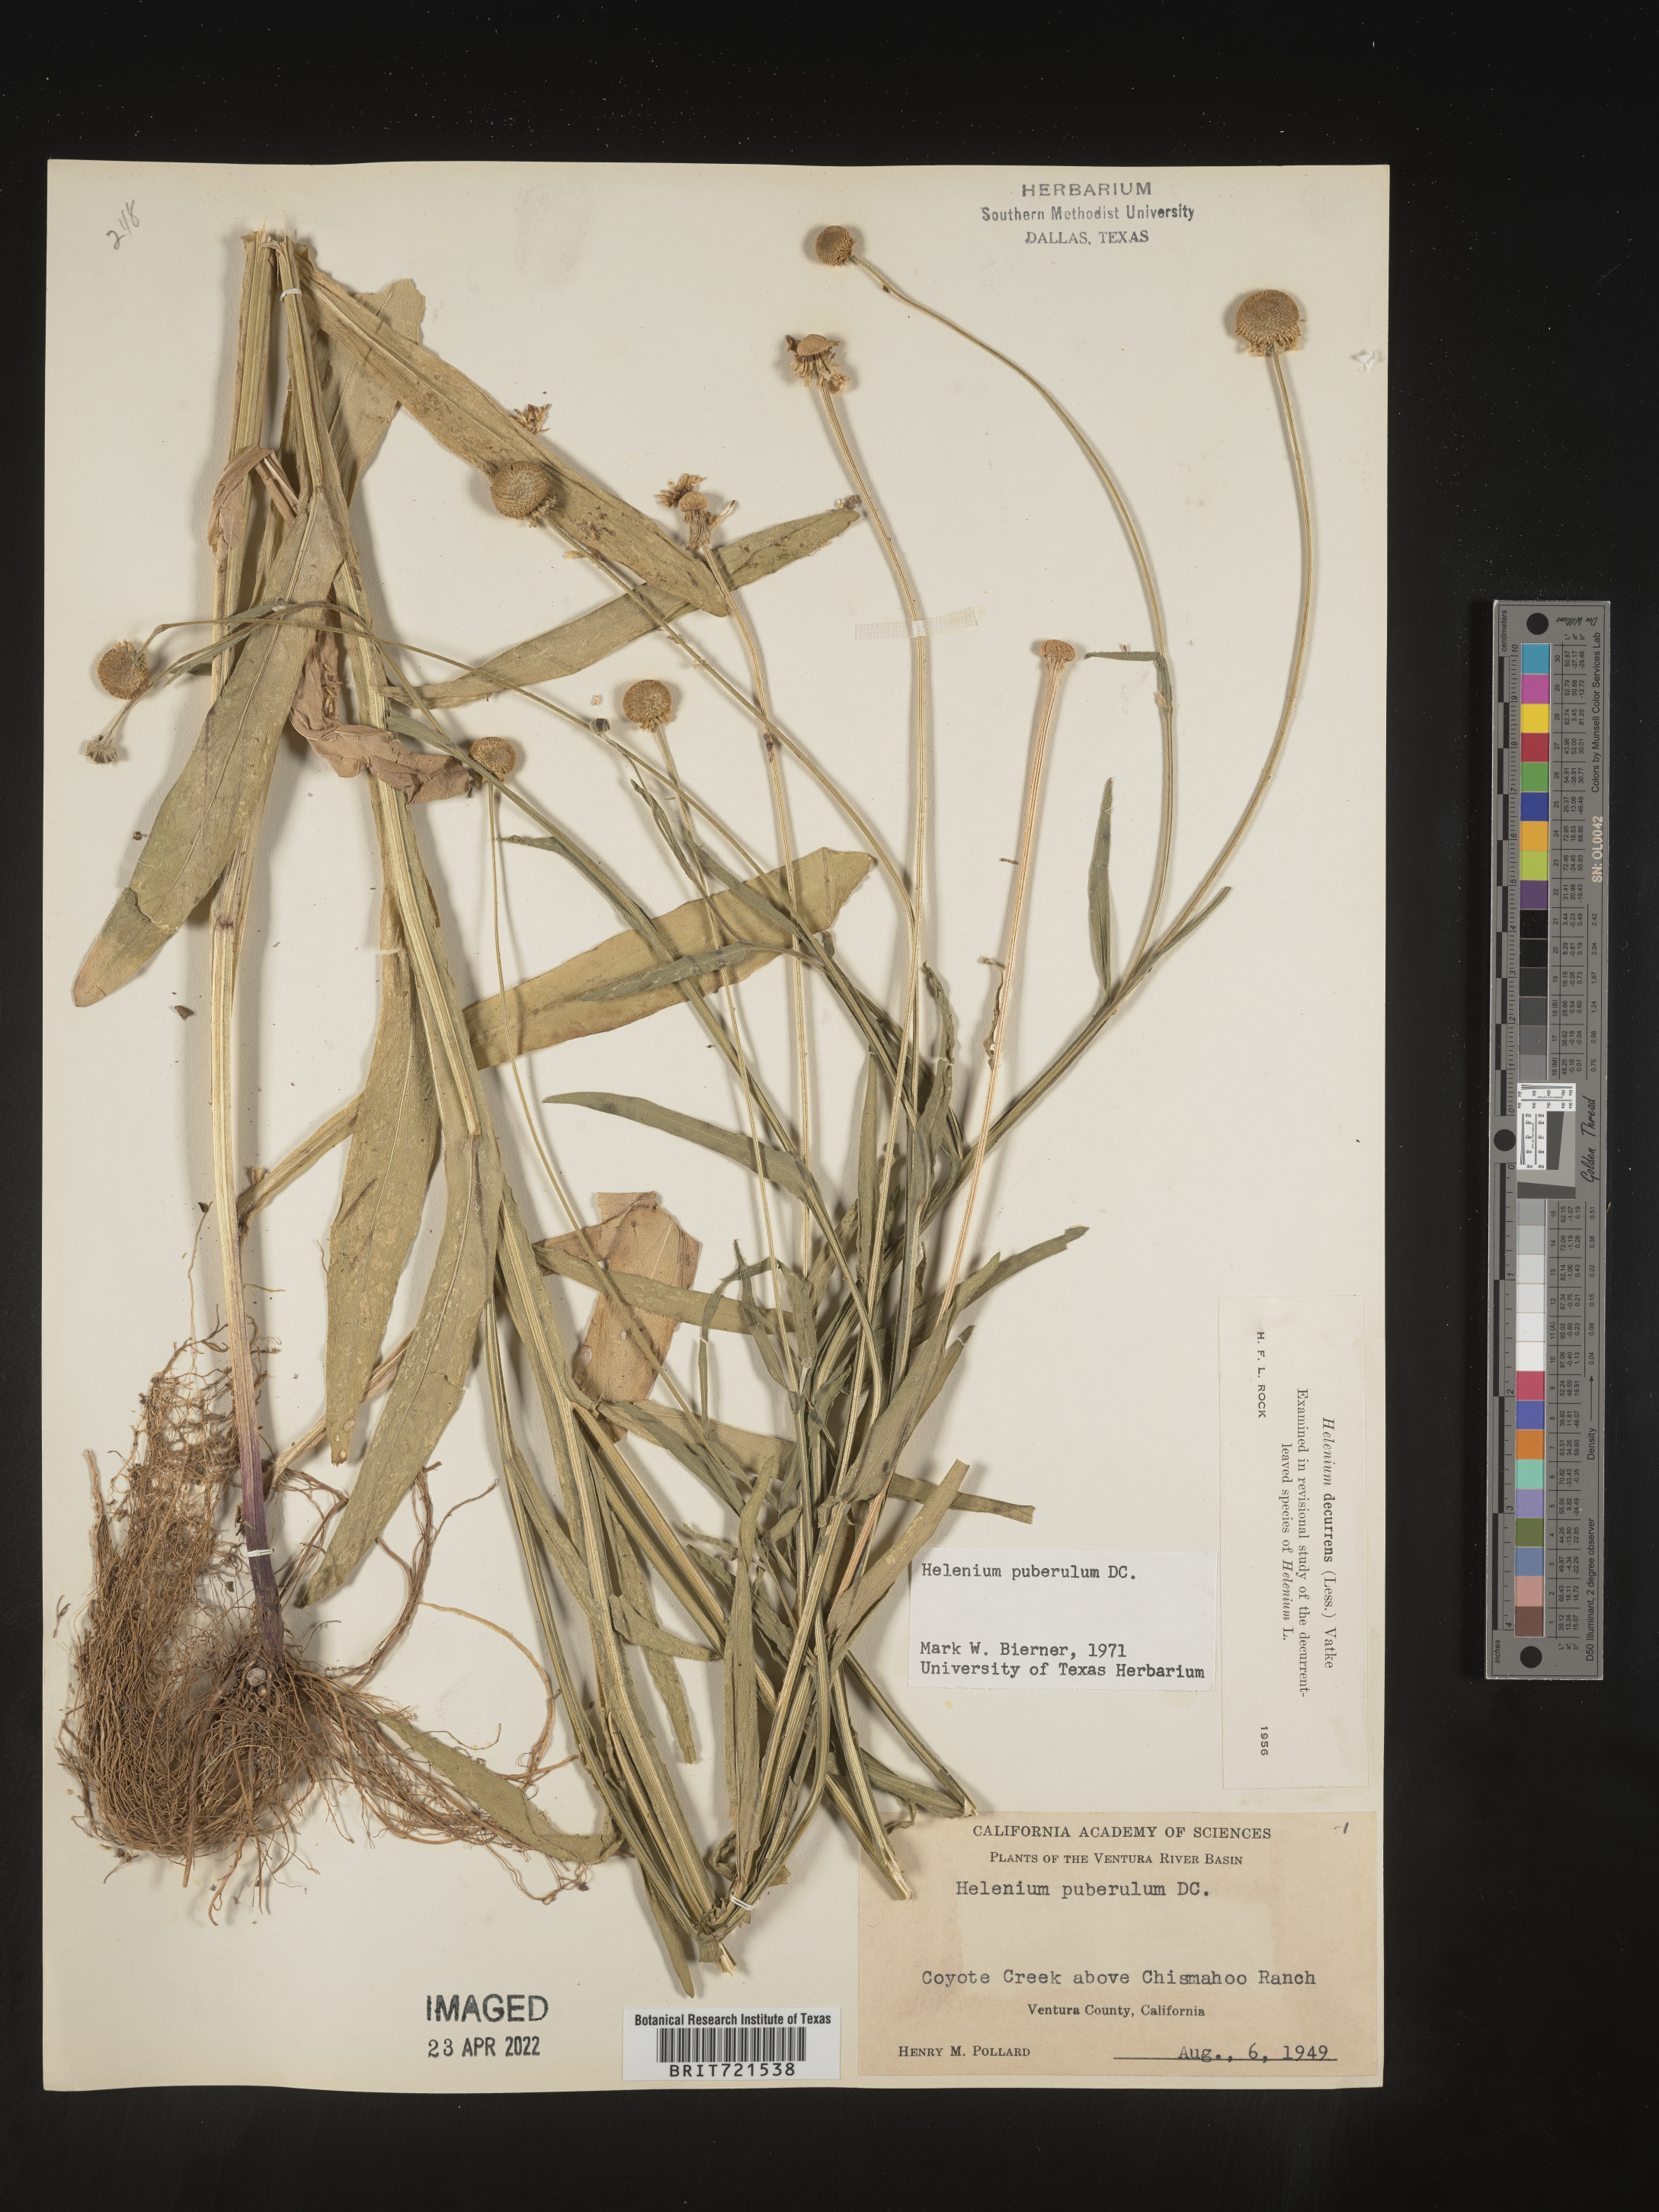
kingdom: Plantae
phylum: Tracheophyta
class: Magnoliopsida
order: Asterales
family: Asteraceae
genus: Helenium
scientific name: Helenium puberulum
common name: Sneezewort
